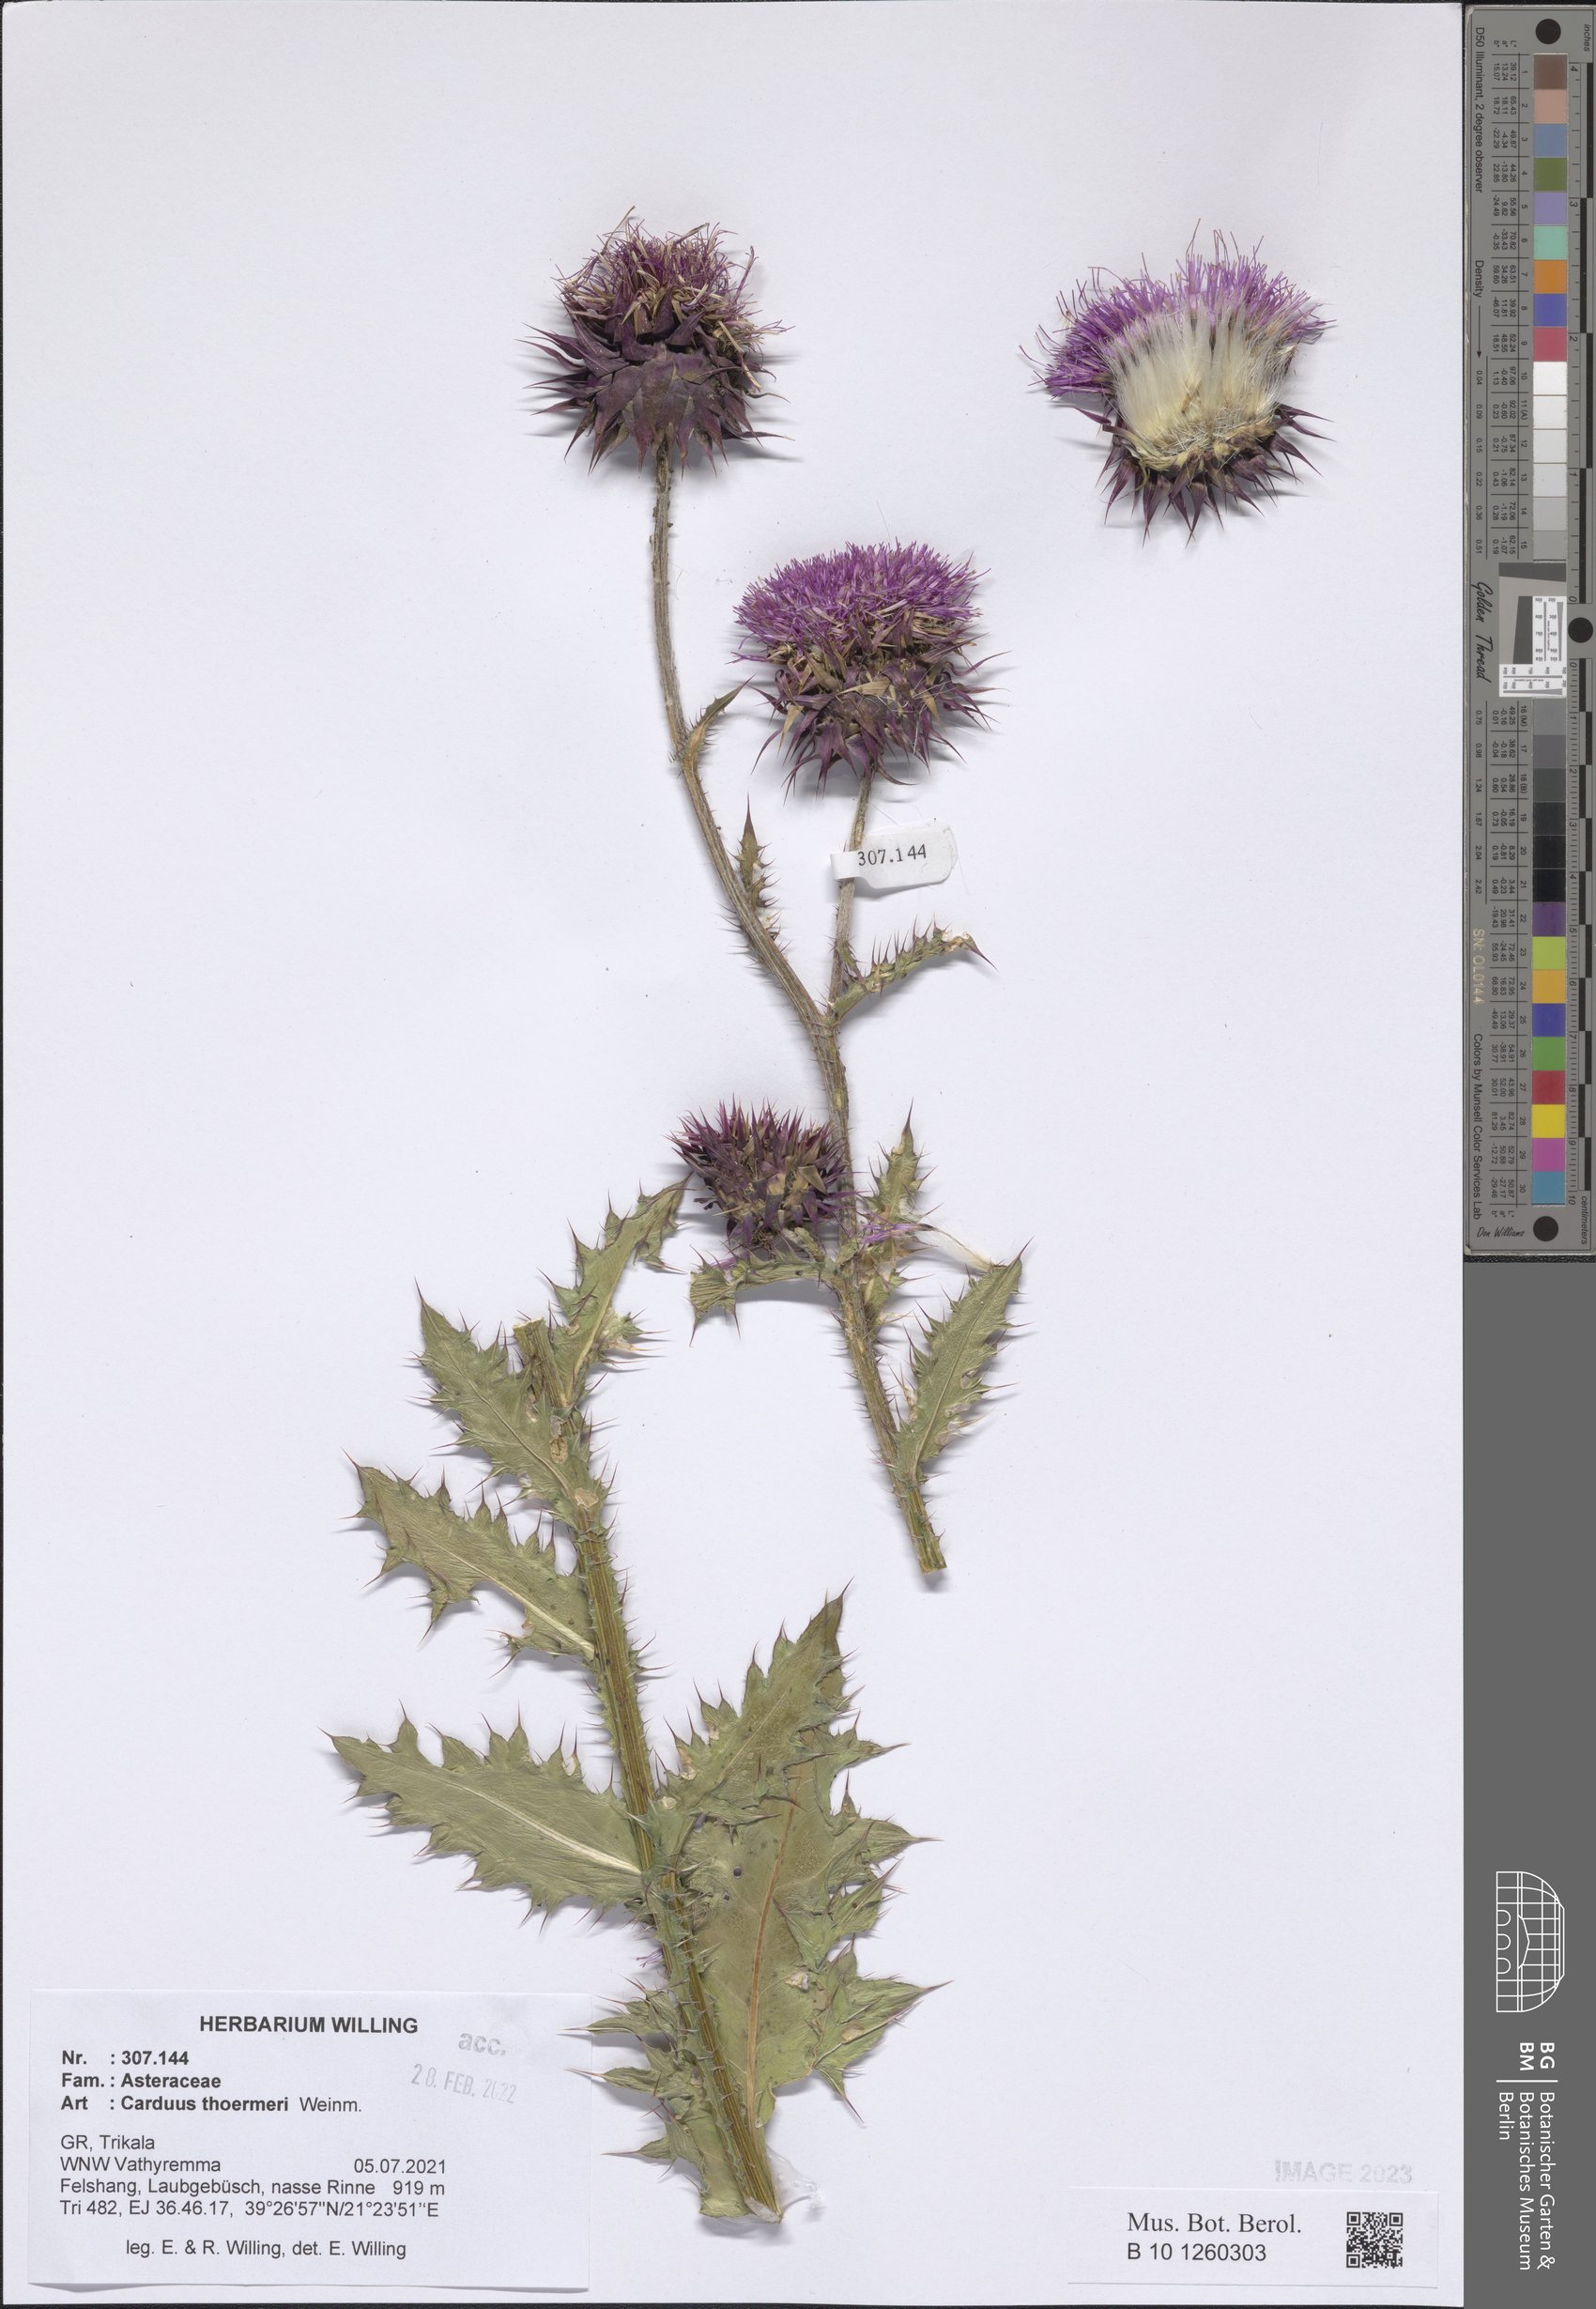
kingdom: Plantae
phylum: Tracheophyta
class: Magnoliopsida
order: Asterales
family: Asteraceae
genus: Carduus
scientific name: Carduus nutans
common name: Musk thistle
